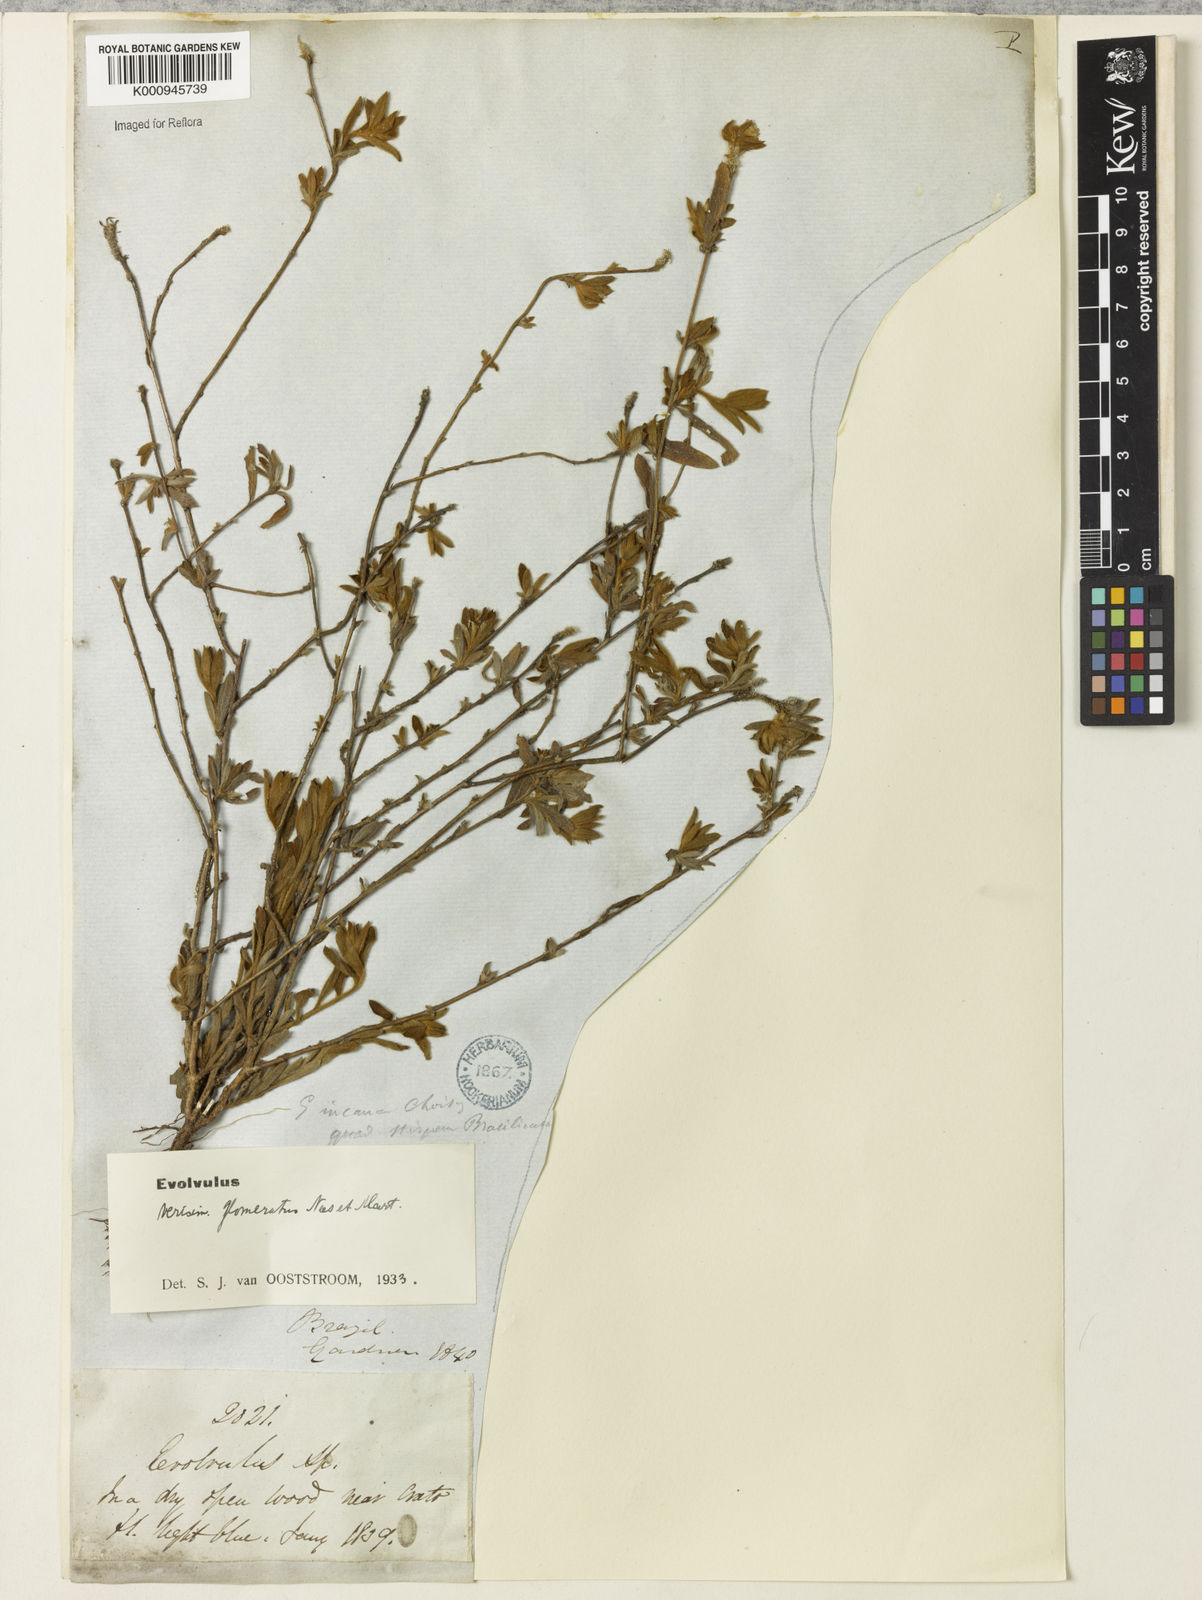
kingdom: Plantae
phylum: Tracheophyta
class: Magnoliopsida
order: Solanales
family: Convolvulaceae
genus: Evolvulus
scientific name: Evolvulus glomeratus
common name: Brazilian dwarf morning-glory
